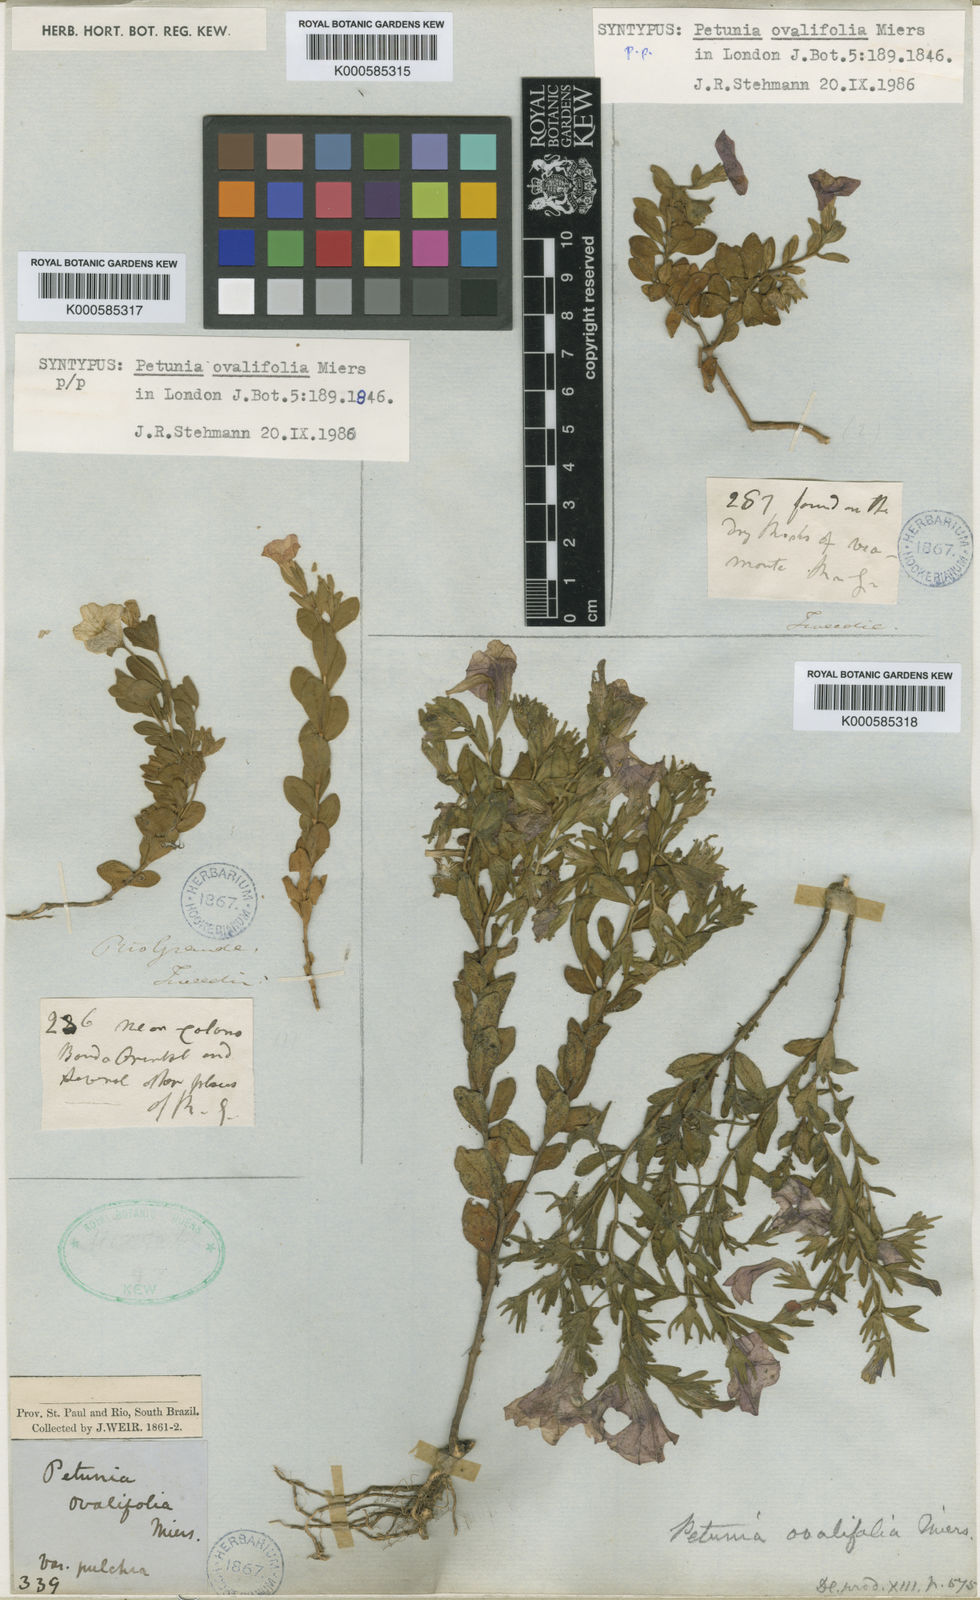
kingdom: Plantae
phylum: Tracheophyta
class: Magnoliopsida
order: Solanales
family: Solanaceae
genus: Calibrachoa
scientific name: Calibrachoa calycina
